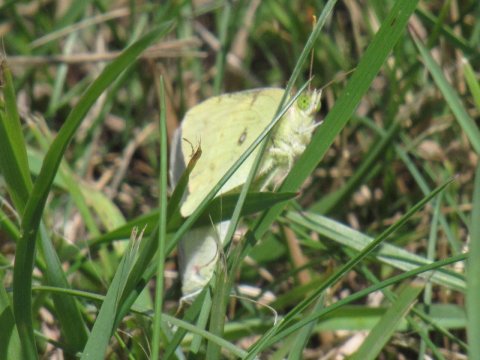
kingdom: Animalia
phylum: Arthropoda
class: Insecta
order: Lepidoptera
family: Pieridae
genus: Colias
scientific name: Colias philodice
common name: Clouded Sulphur
